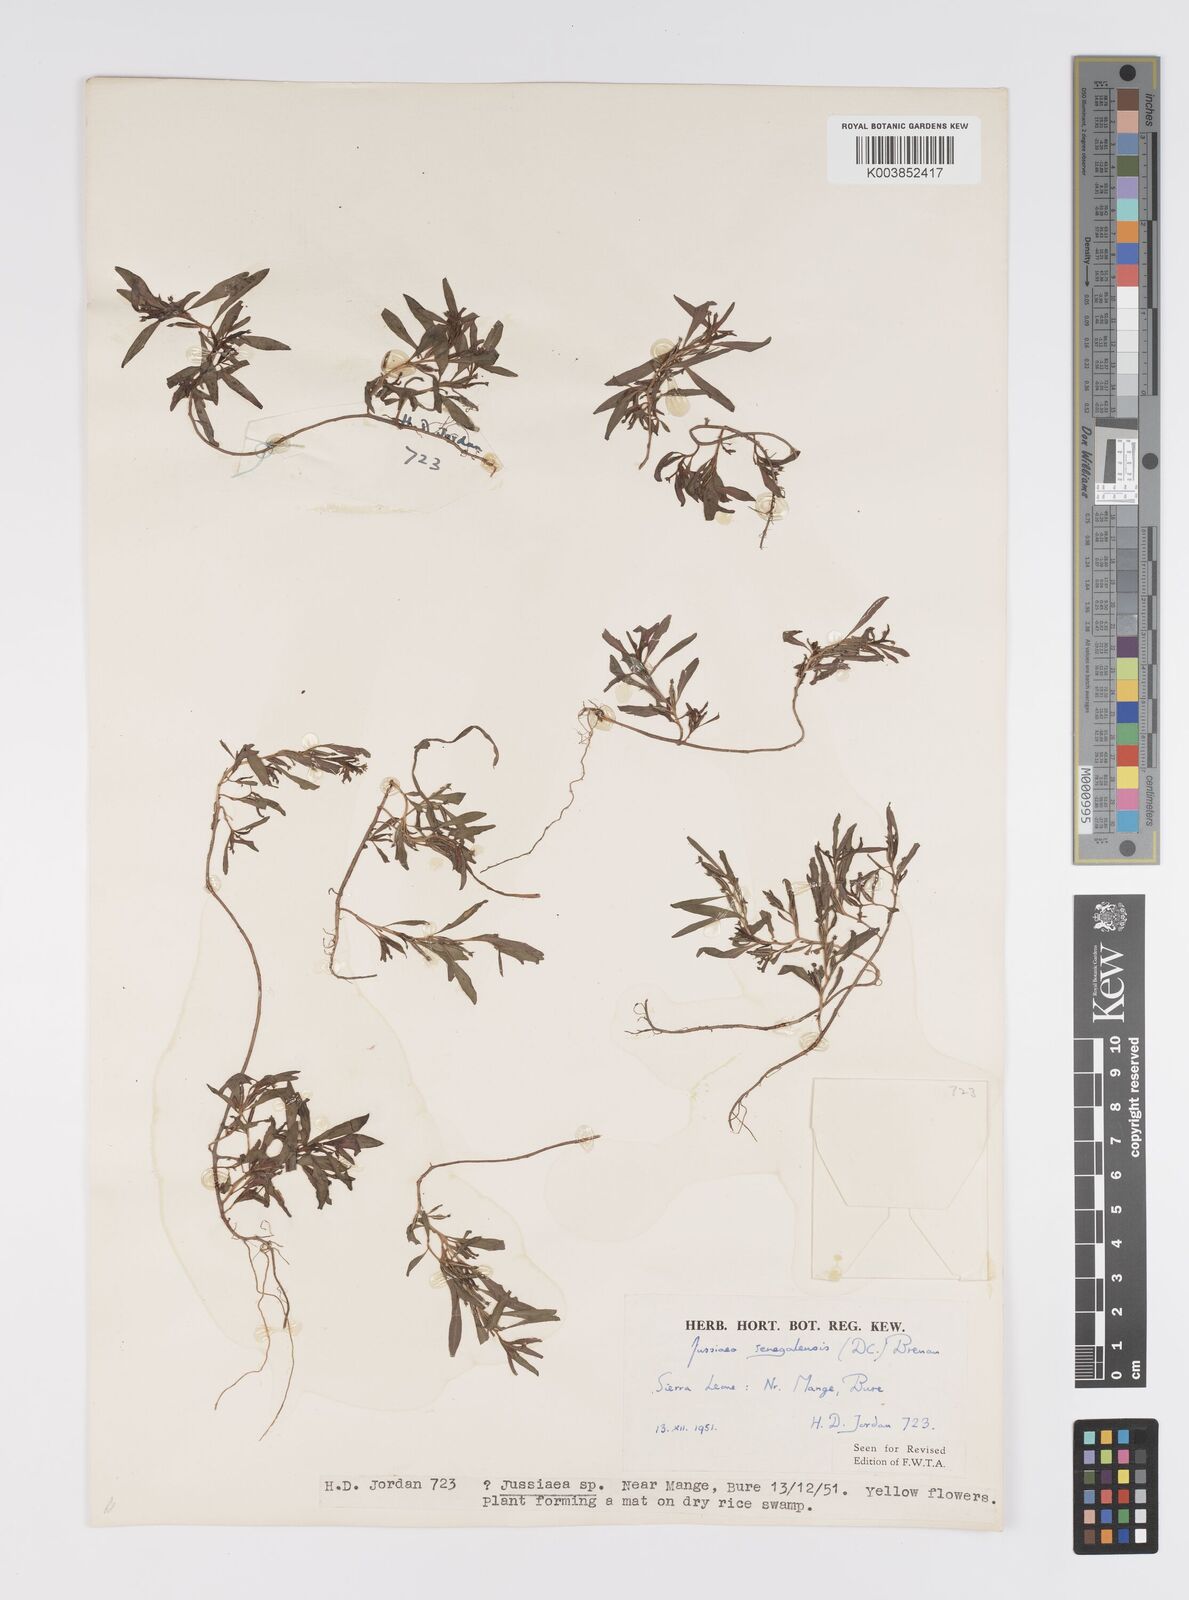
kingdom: Plantae
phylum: Tracheophyta
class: Magnoliopsida
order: Myrtales
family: Onagraceae
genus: Ludwigia
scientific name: Ludwigia senegalensis
